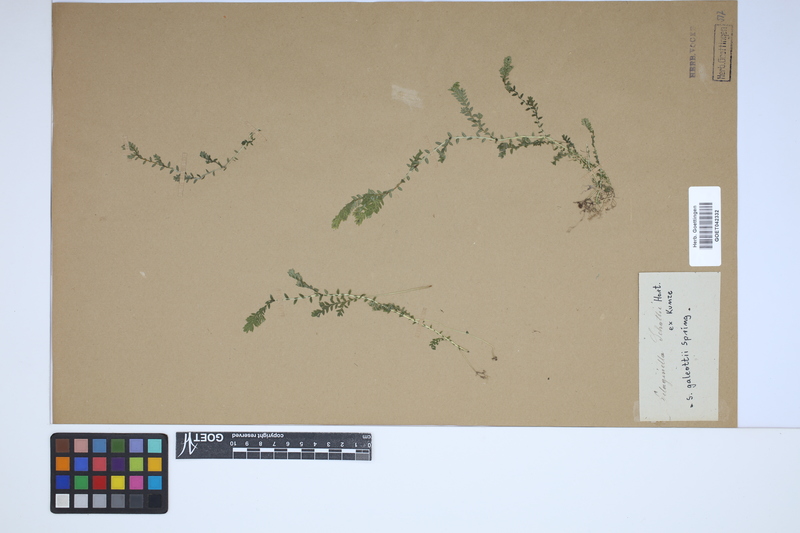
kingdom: Plantae
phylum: Tracheophyta
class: Lycopodiopsida
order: Selaginellales
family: Selaginellaceae
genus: Selaginella
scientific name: Selaginella stellata
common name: Starry spikemoss
